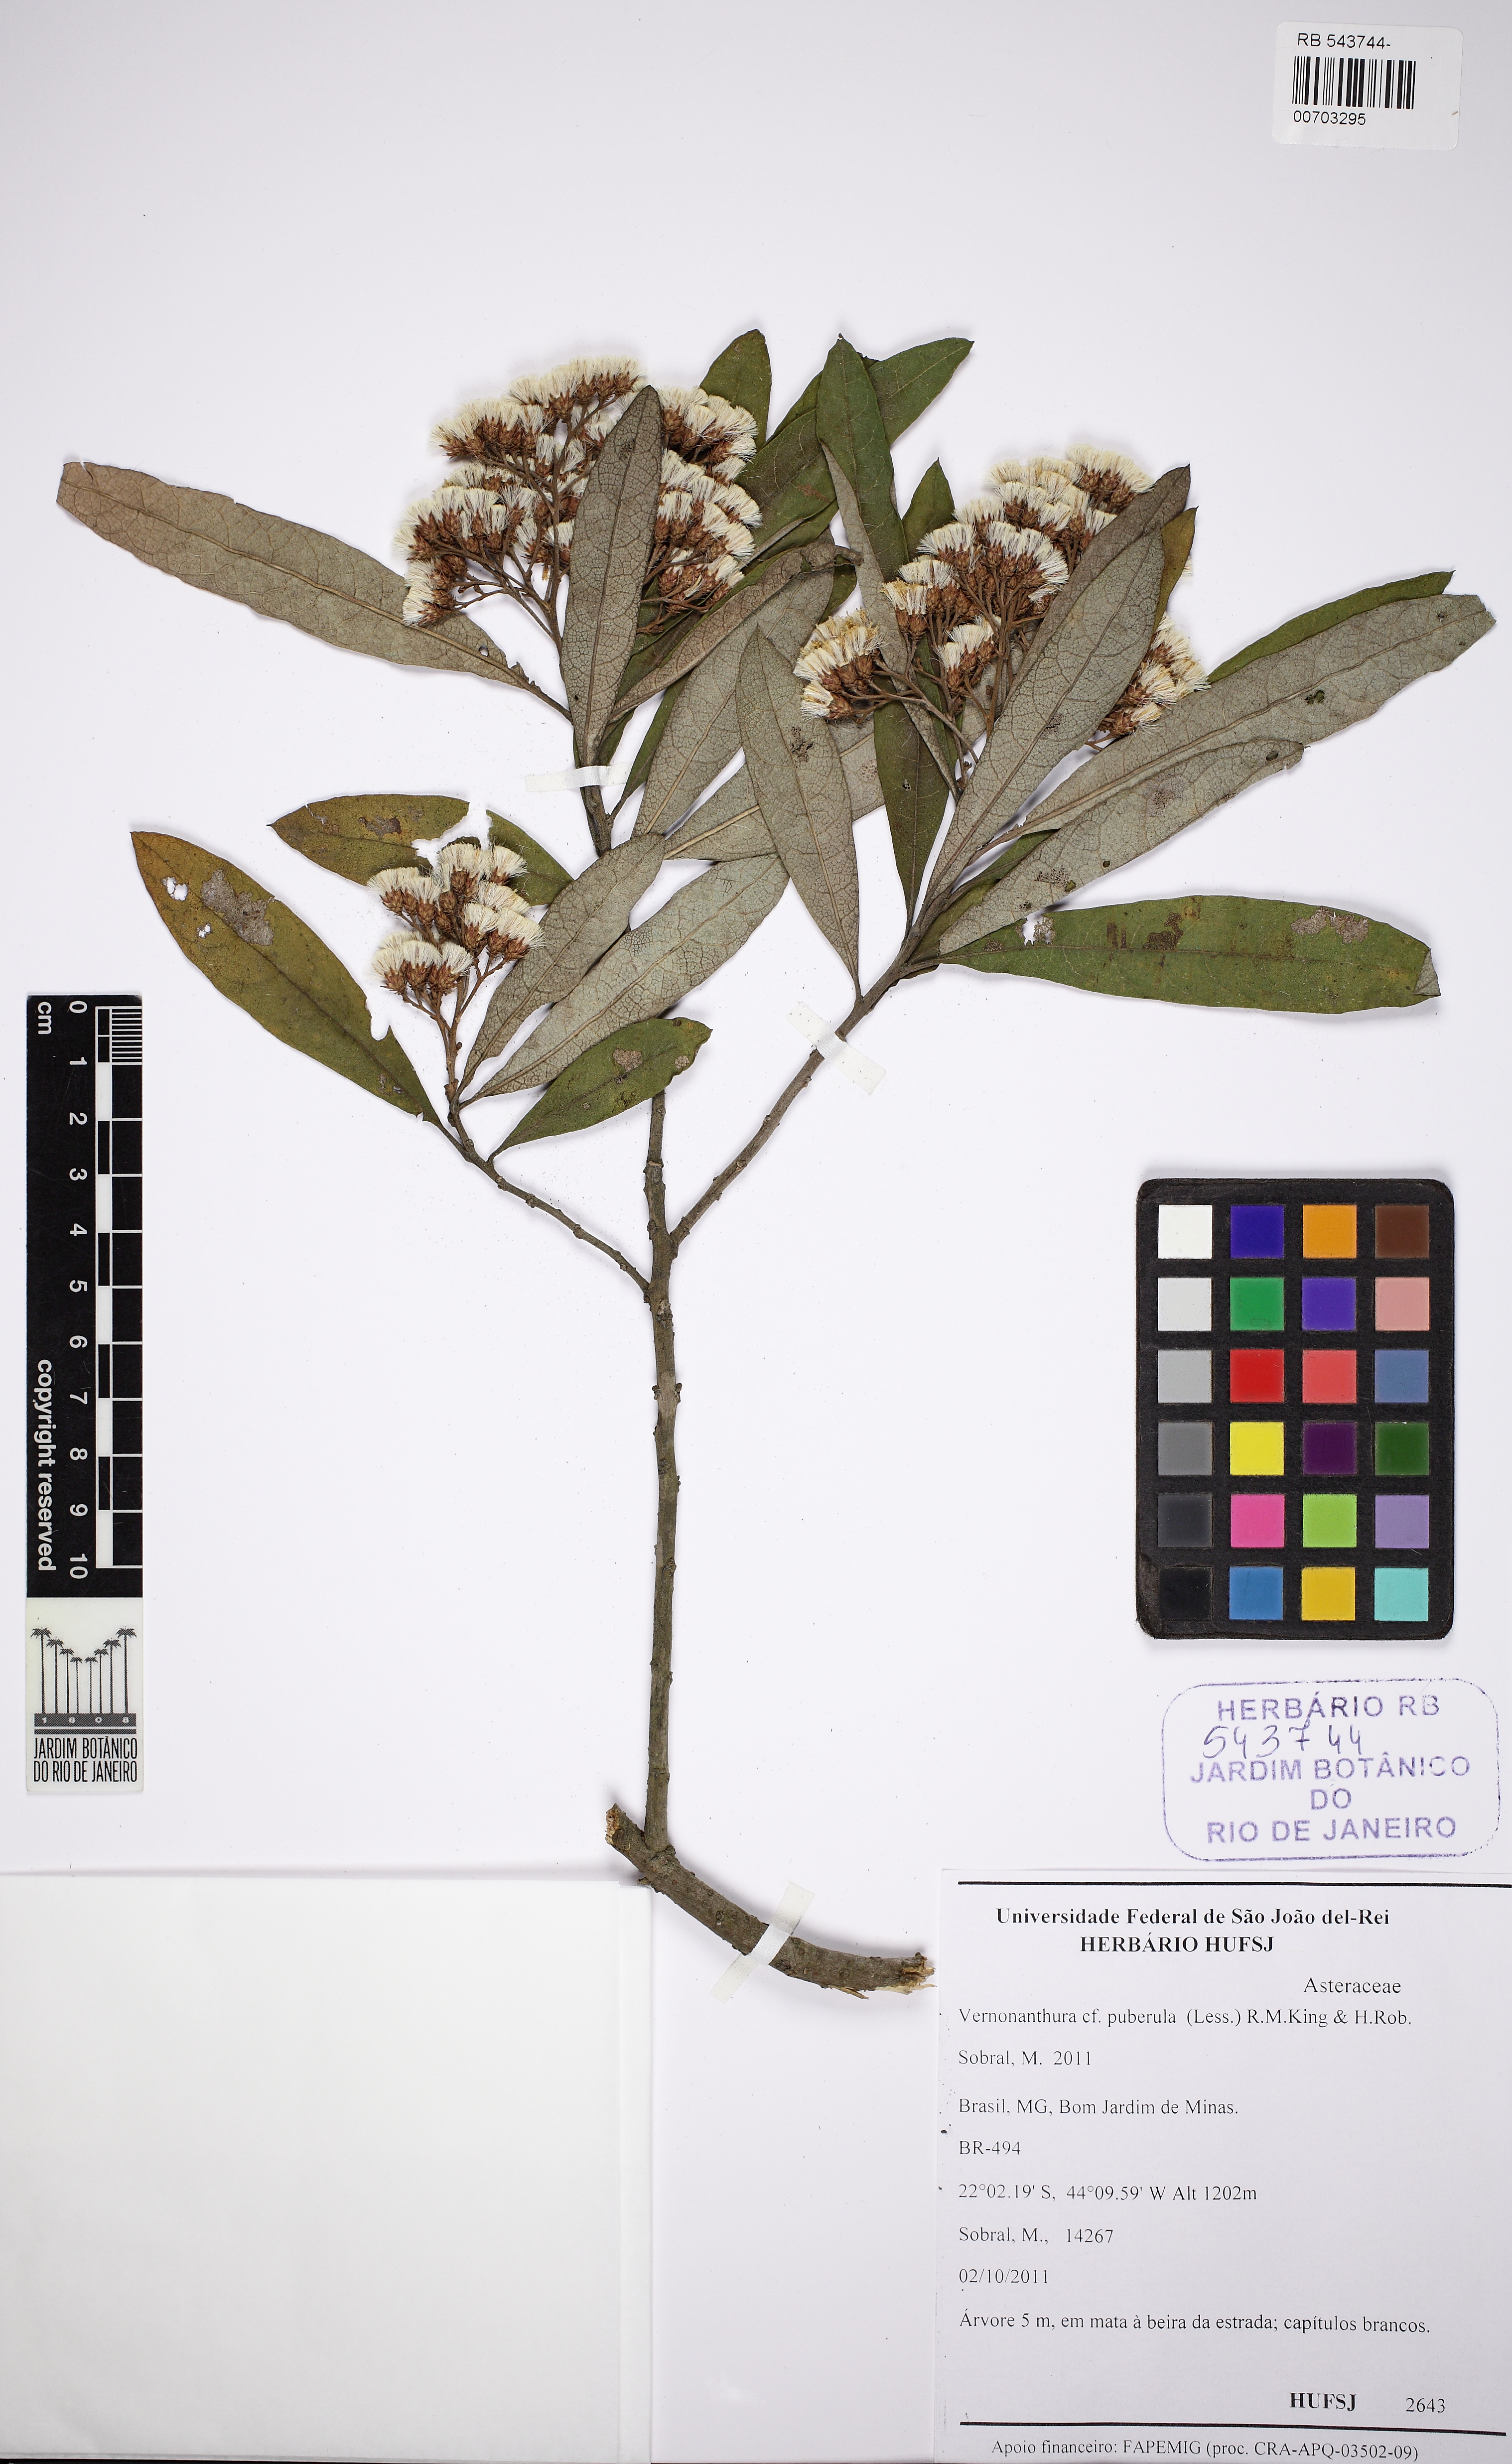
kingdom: Plantae
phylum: Tracheophyta
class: Magnoliopsida
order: Asterales
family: Asteraceae
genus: Vernonanthura
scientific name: Vernonanthura puberula
